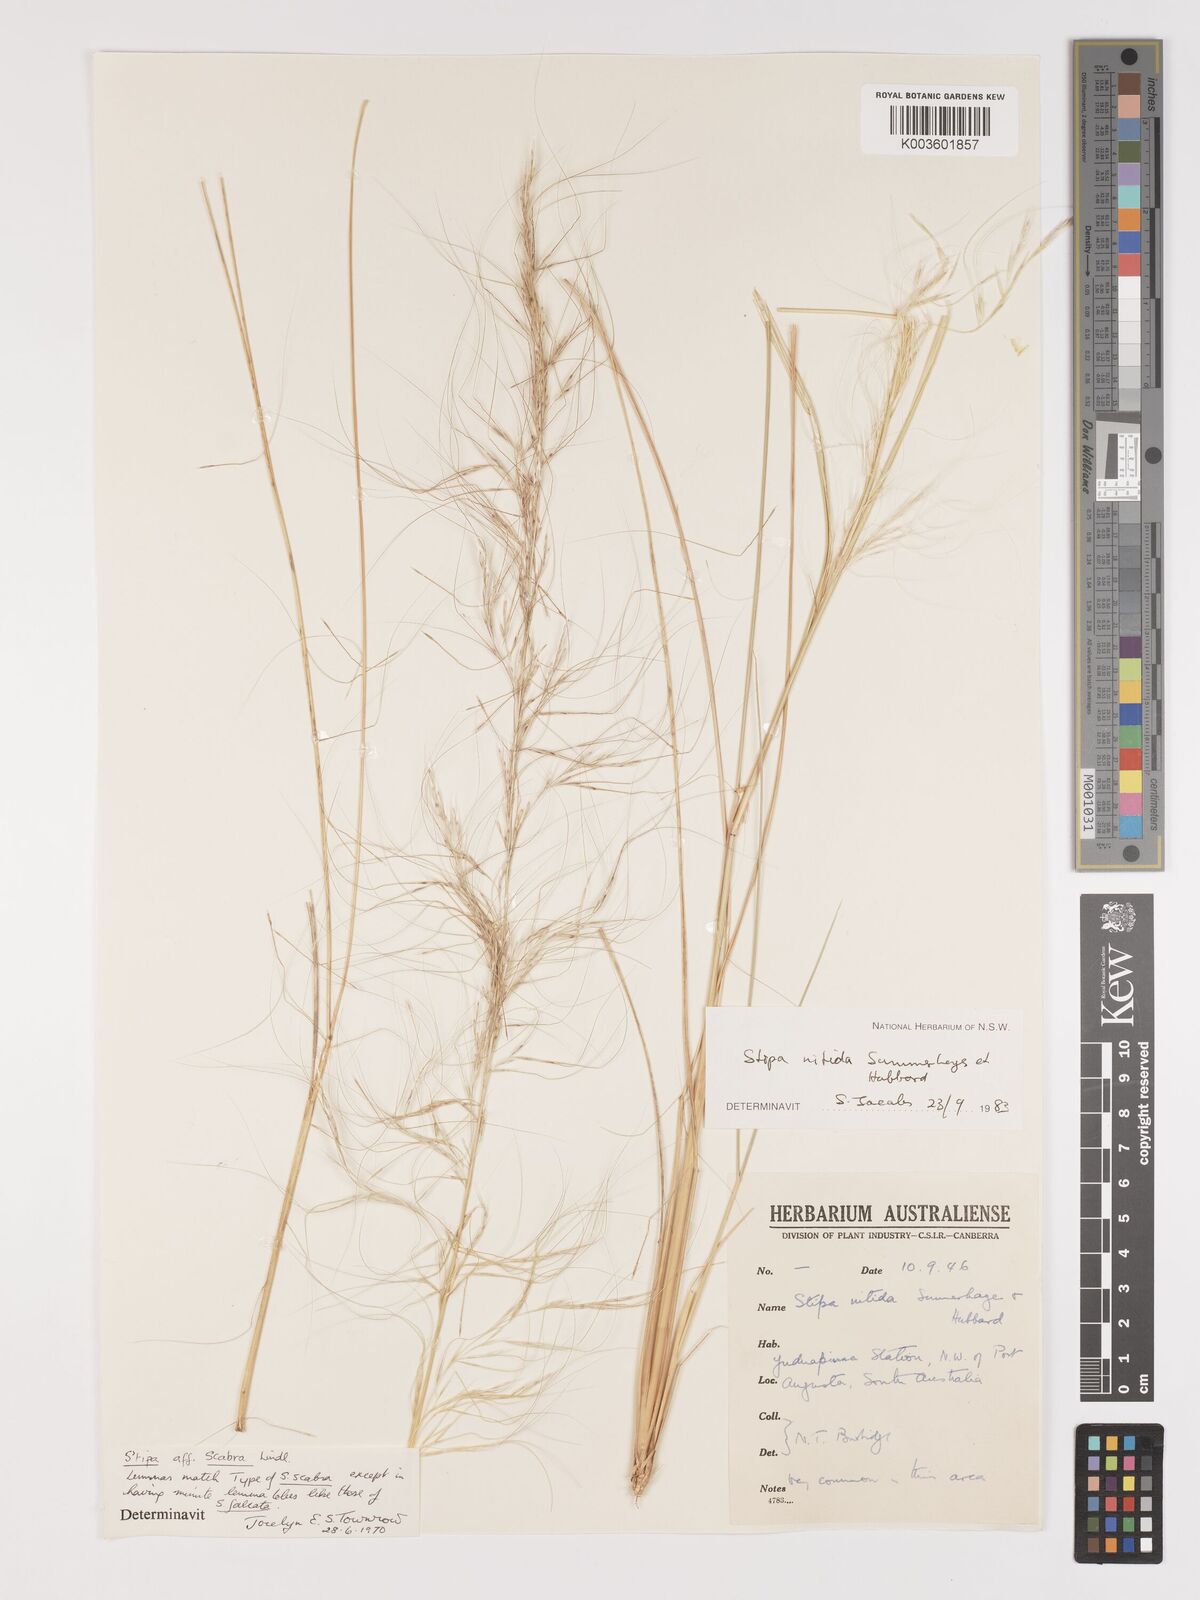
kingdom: Plantae
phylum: Tracheophyta
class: Liliopsida
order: Poales
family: Poaceae
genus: Austrostipa
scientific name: Austrostipa nitida
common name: Balcarra grass
